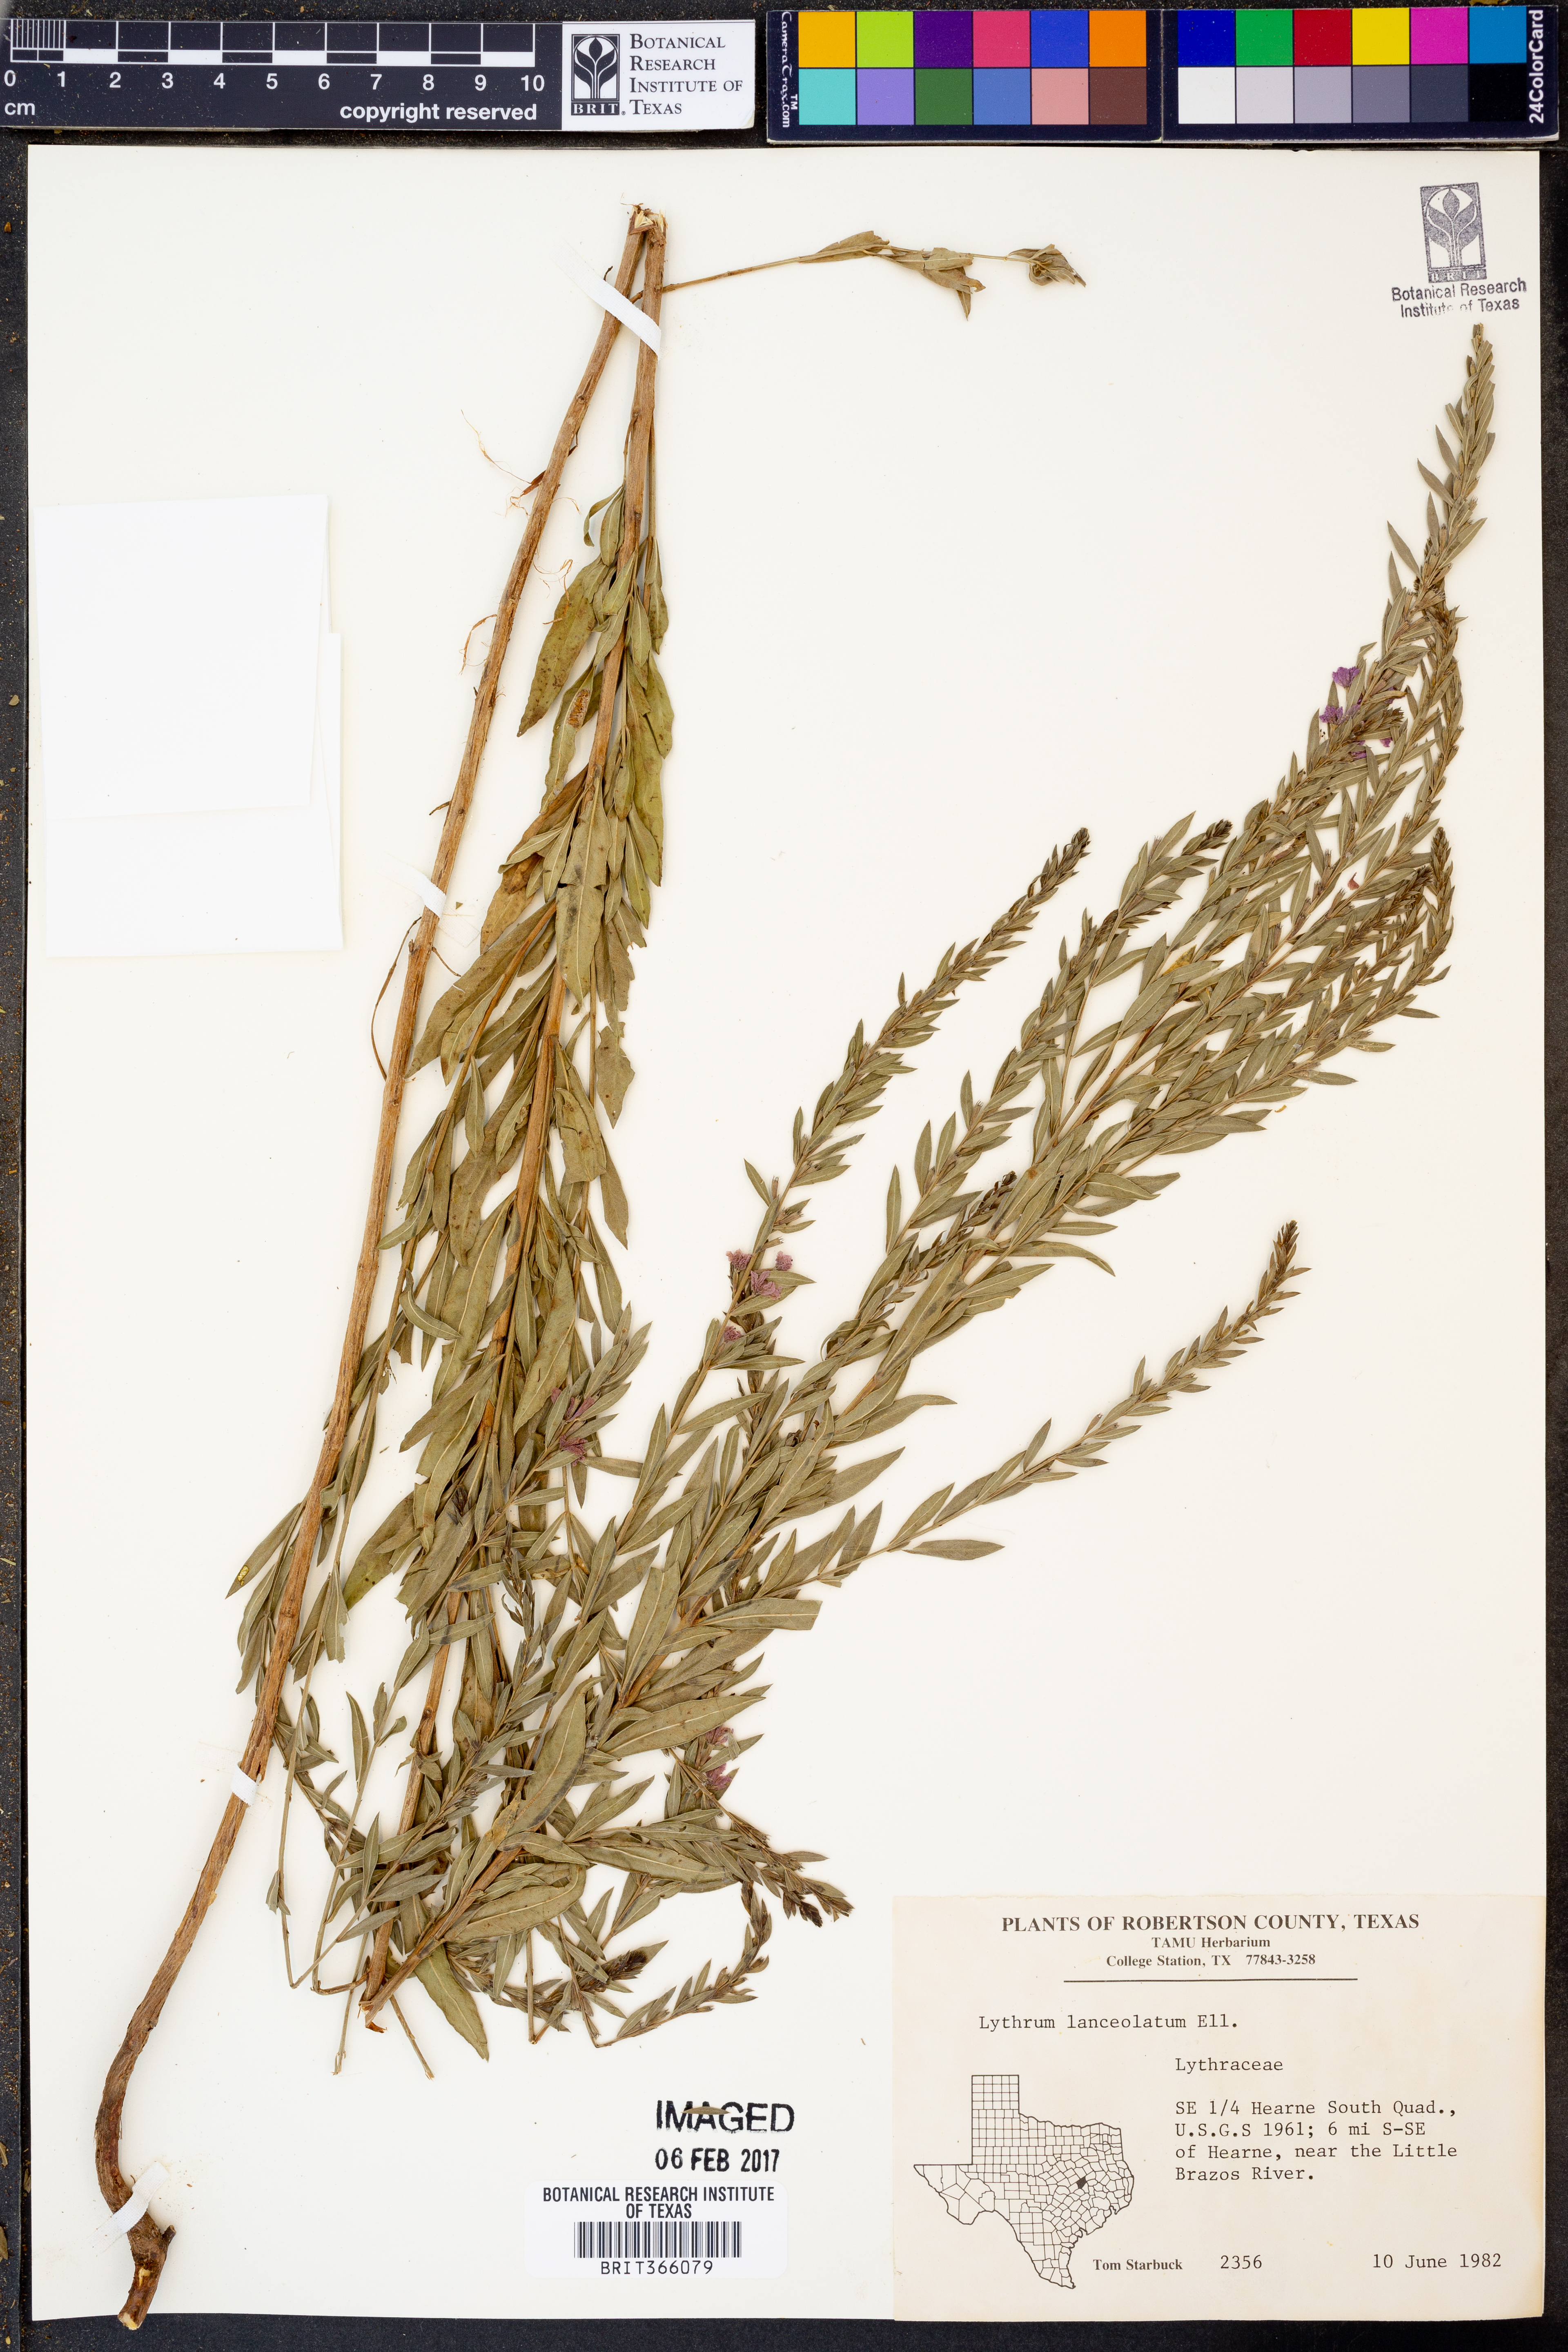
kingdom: Plantae
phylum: Tracheophyta
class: Magnoliopsida
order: Myrtales
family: Lythraceae
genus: Lythrum
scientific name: Lythrum alatum
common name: Winged loosestrife
